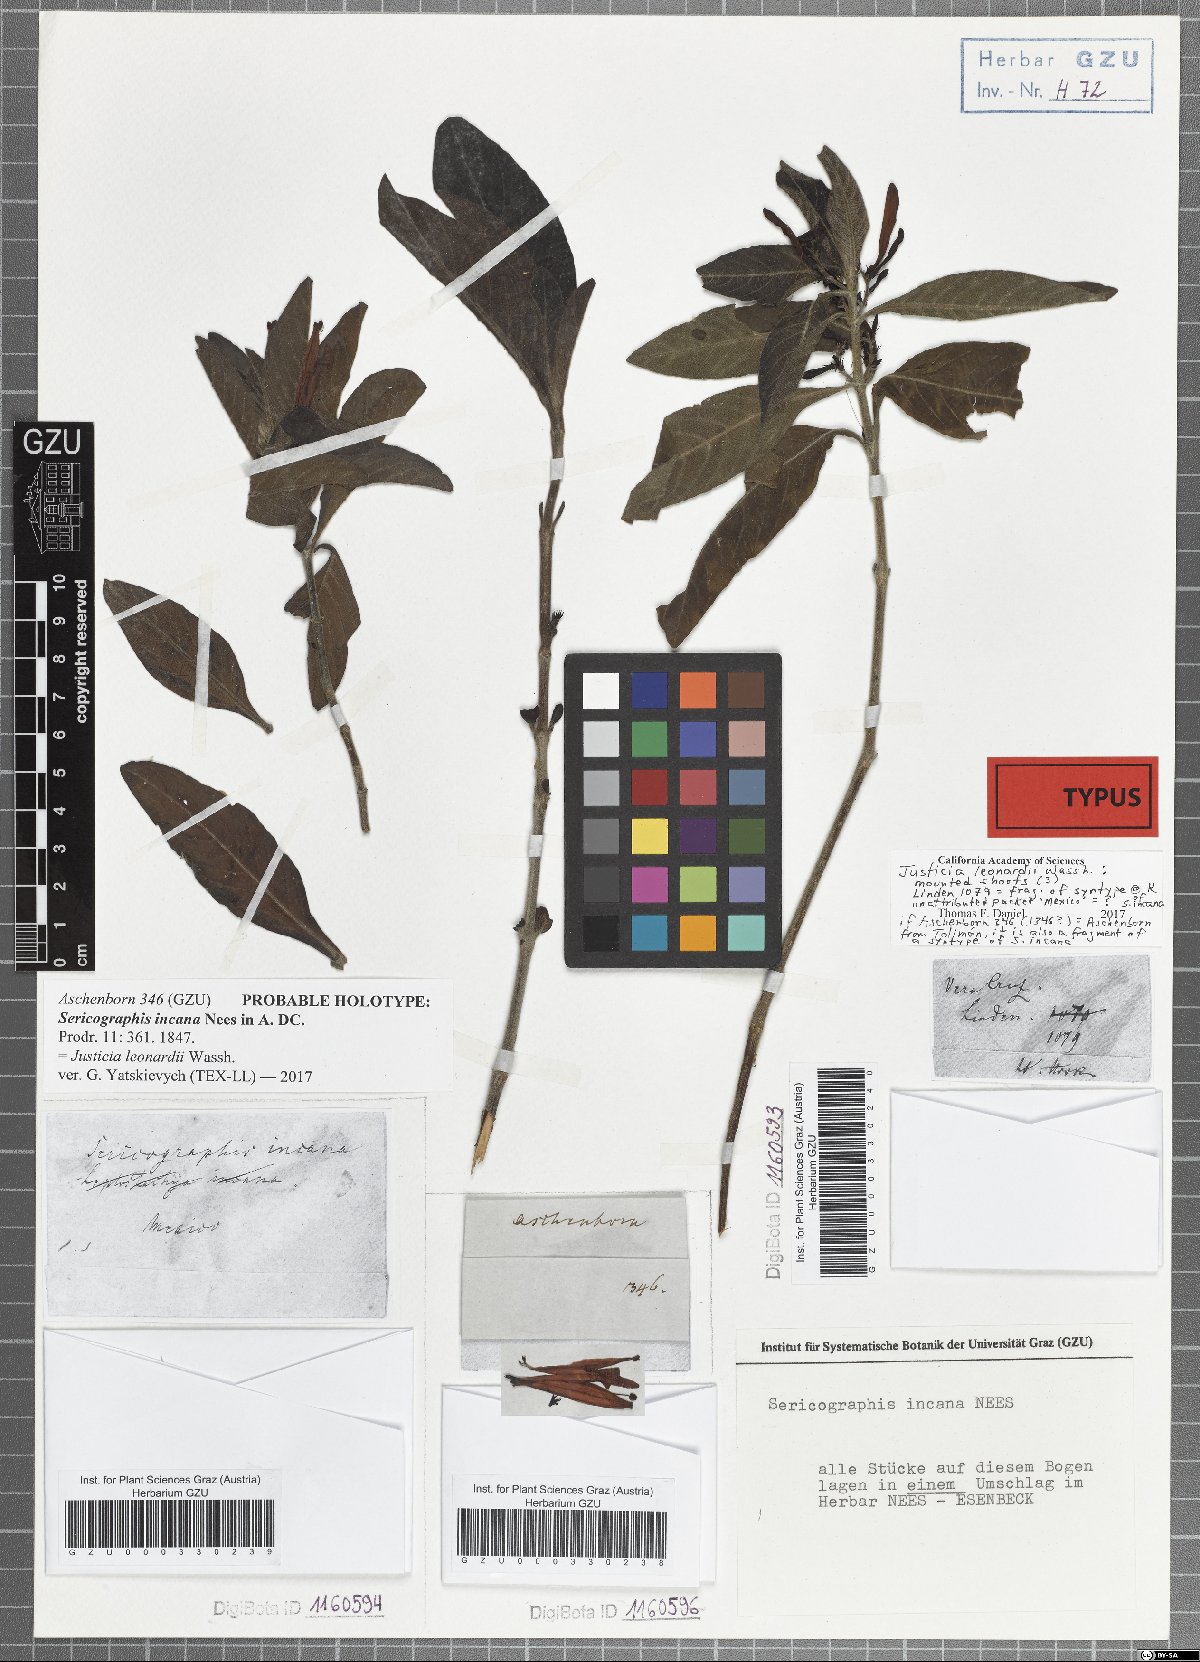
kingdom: Plantae
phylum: Tracheophyta
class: Magnoliopsida
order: Lamiales
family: Acanthaceae
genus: Justicia
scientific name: Justicia leonardii
